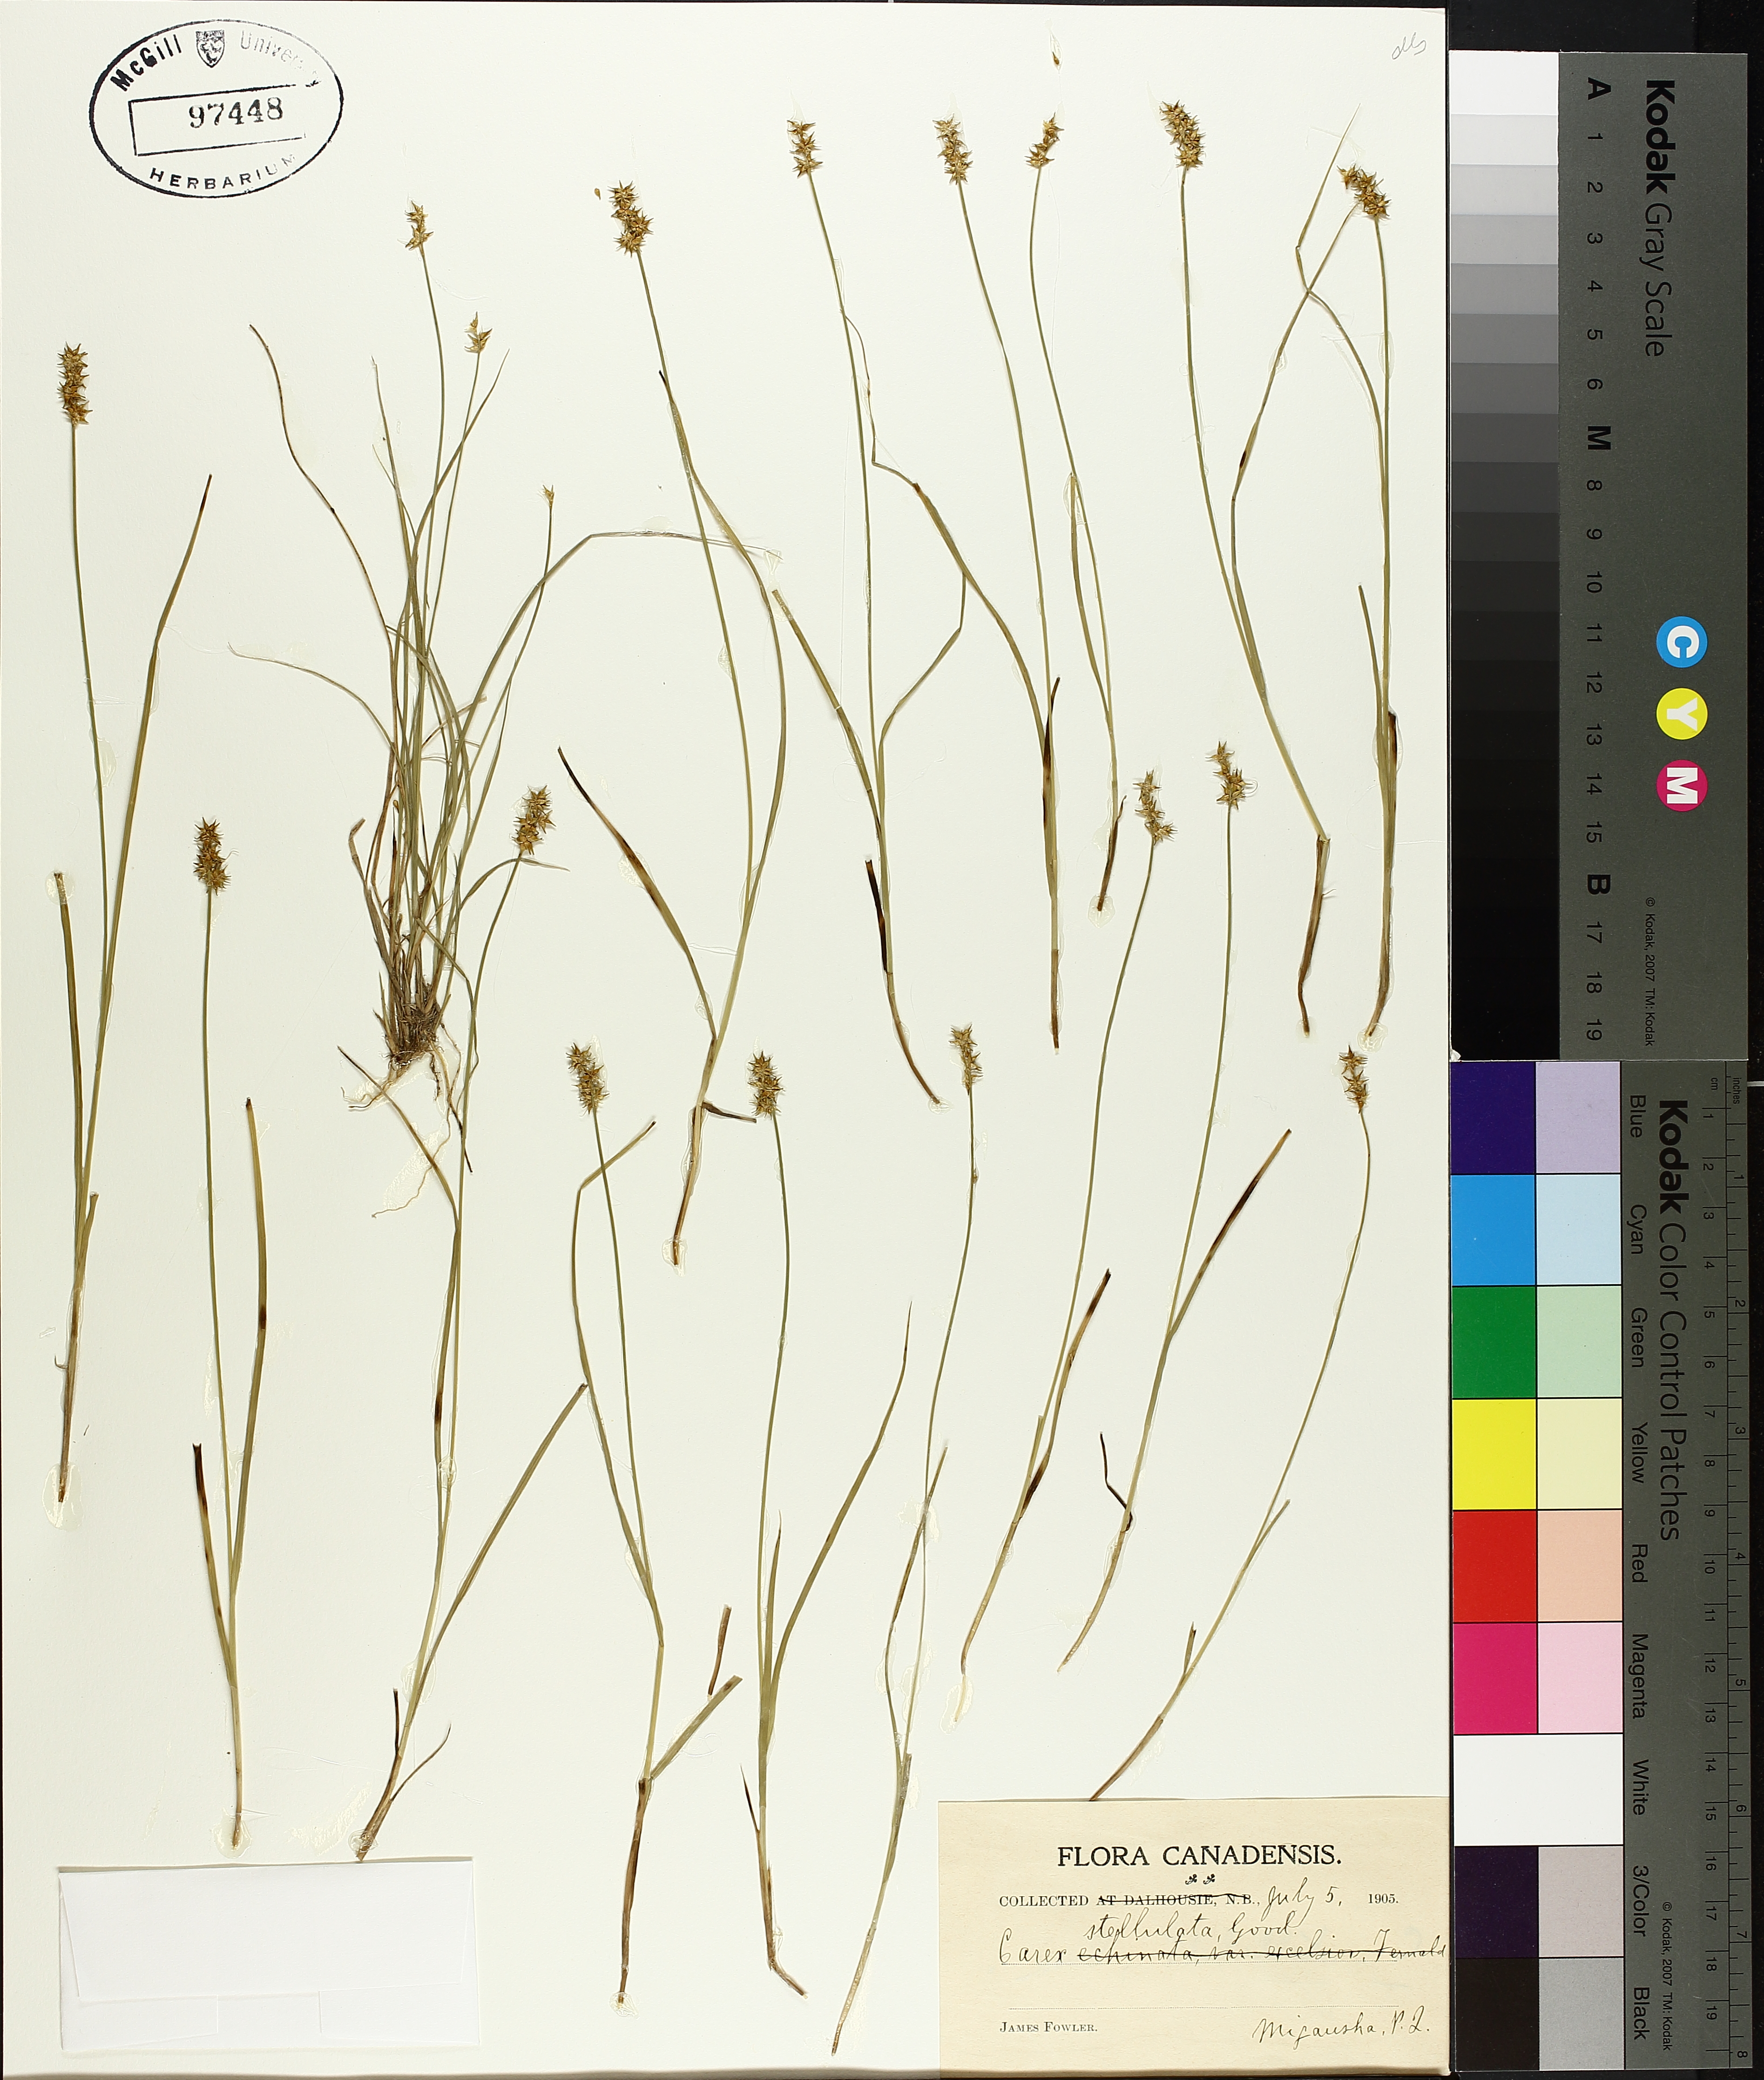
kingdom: Plantae
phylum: Tracheophyta
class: Liliopsida
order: Poales
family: Cyperaceae
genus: Carex
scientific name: Carex echinata
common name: Star sedge
